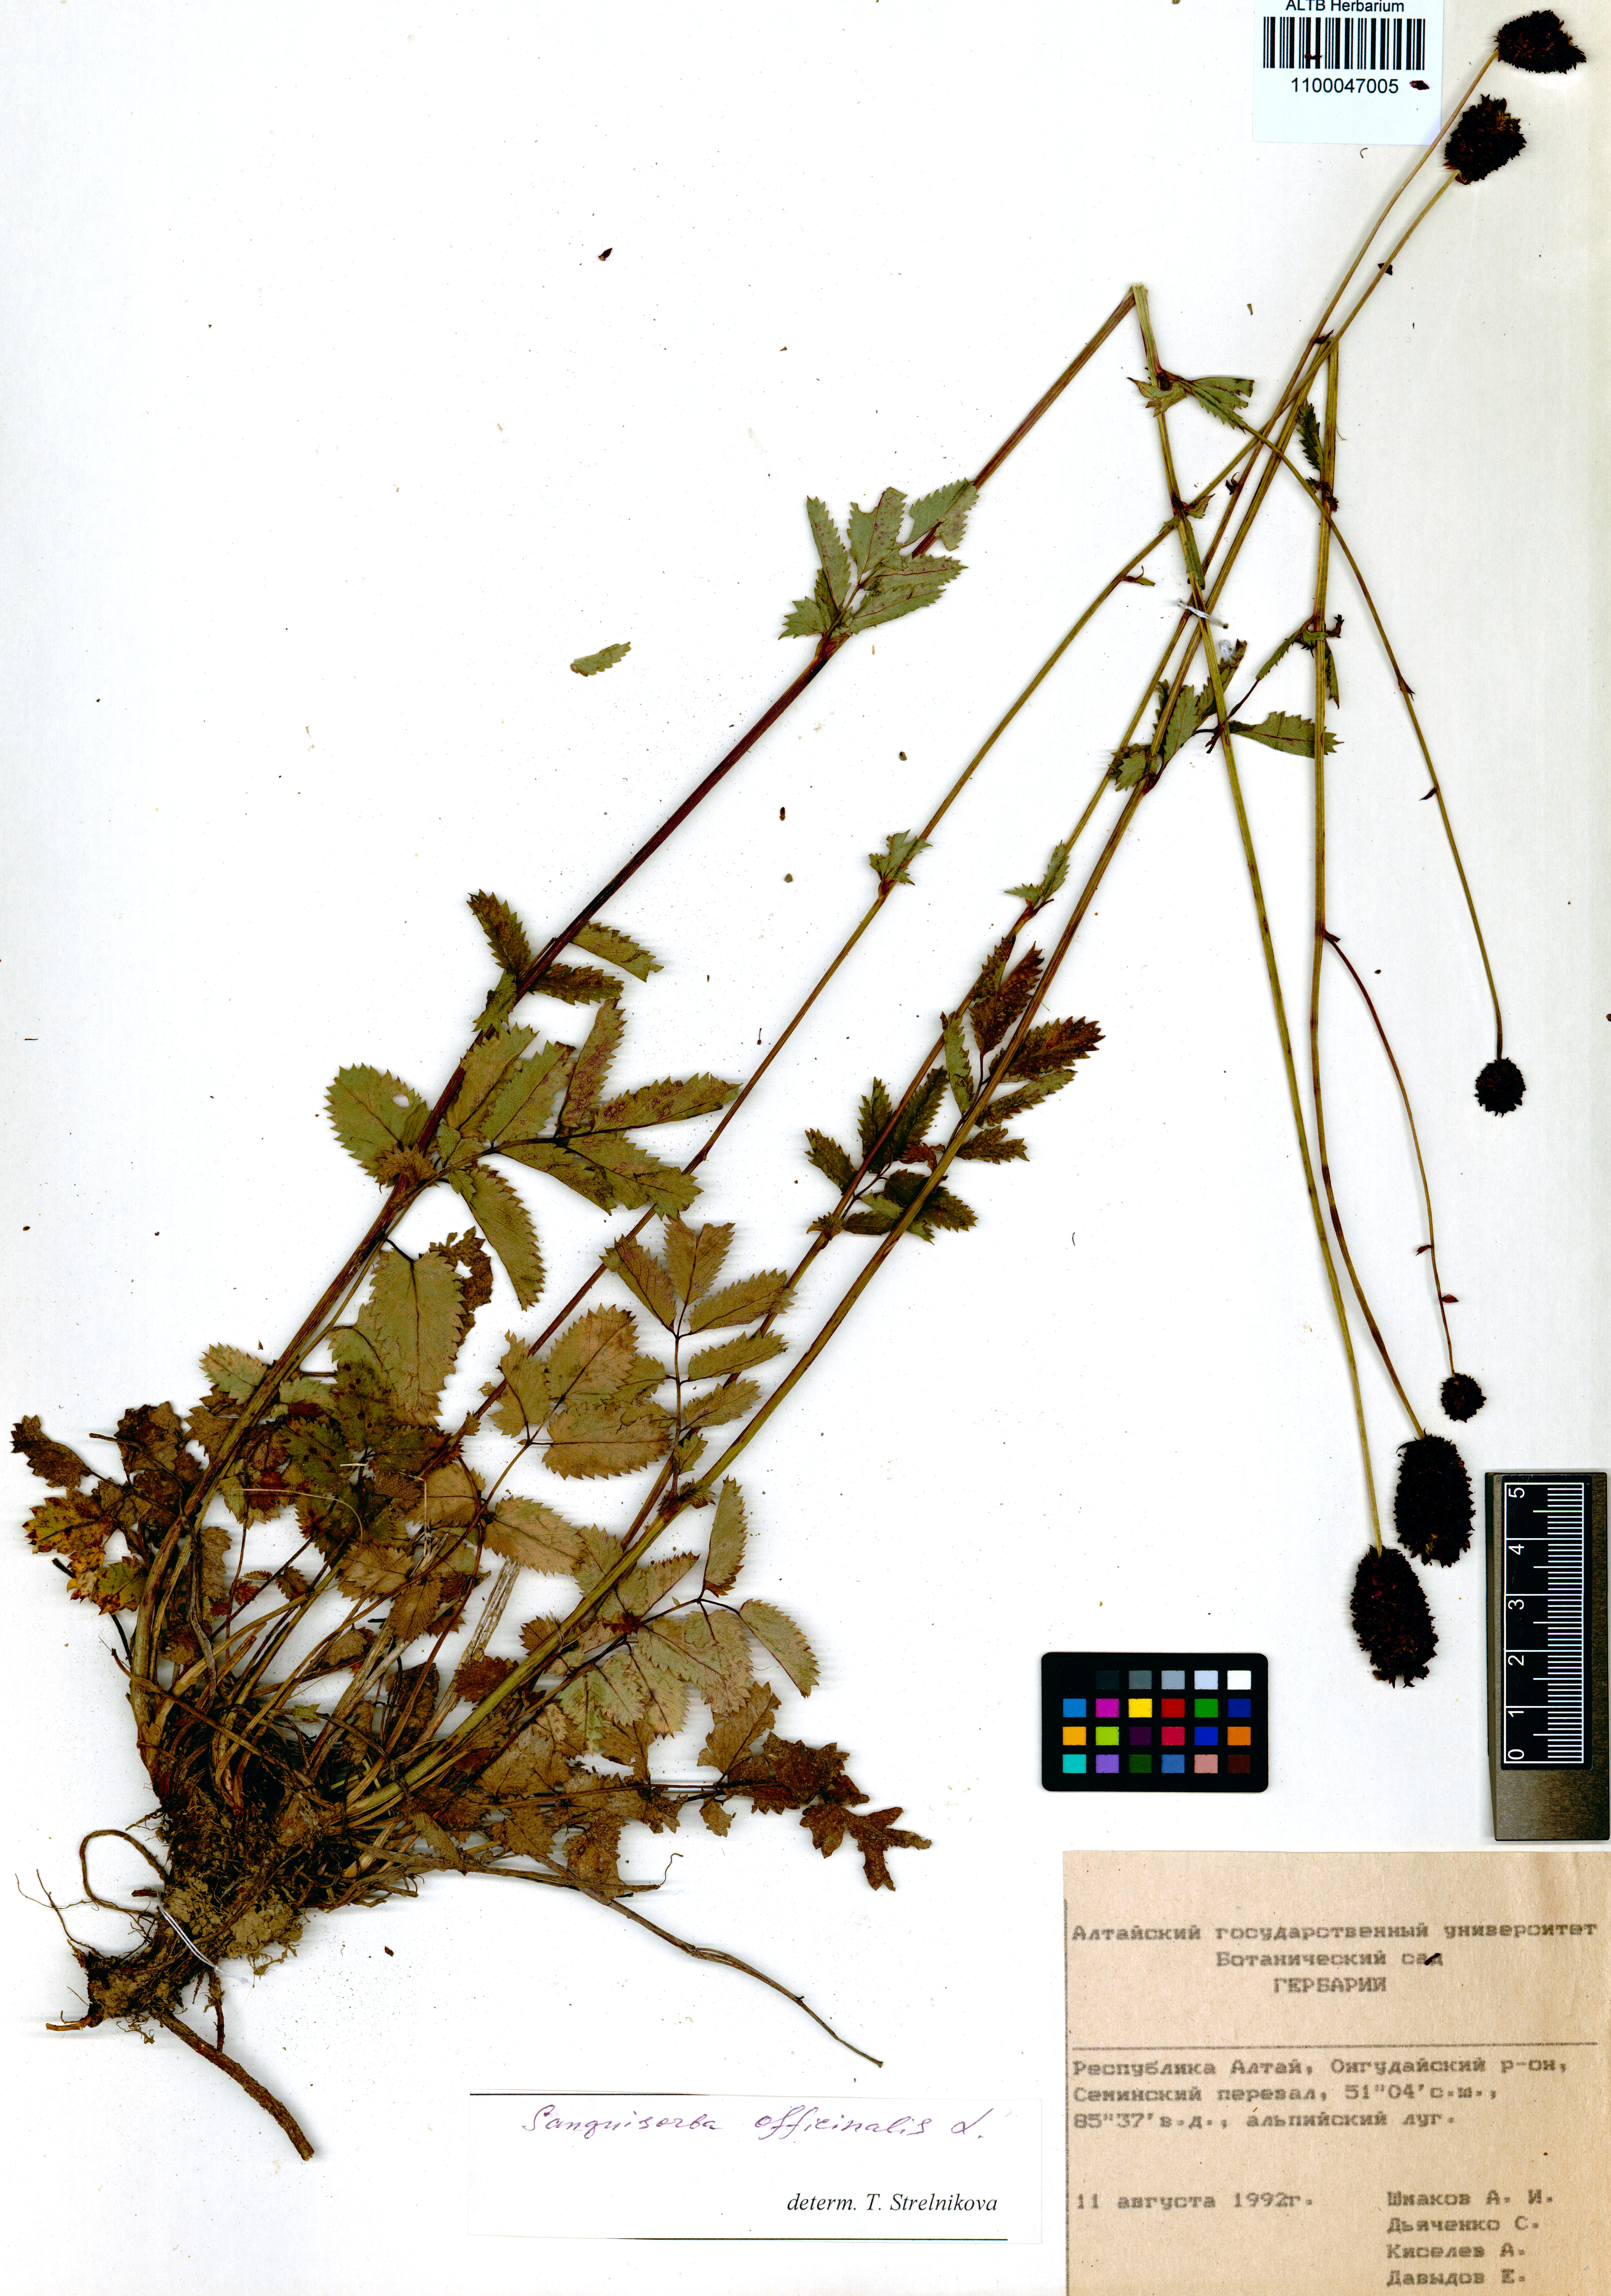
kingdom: Plantae
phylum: Tracheophyta
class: Magnoliopsida
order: Rosales
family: Rosaceae
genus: Sanguisorba
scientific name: Sanguisorba officinalis
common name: Great burnet
